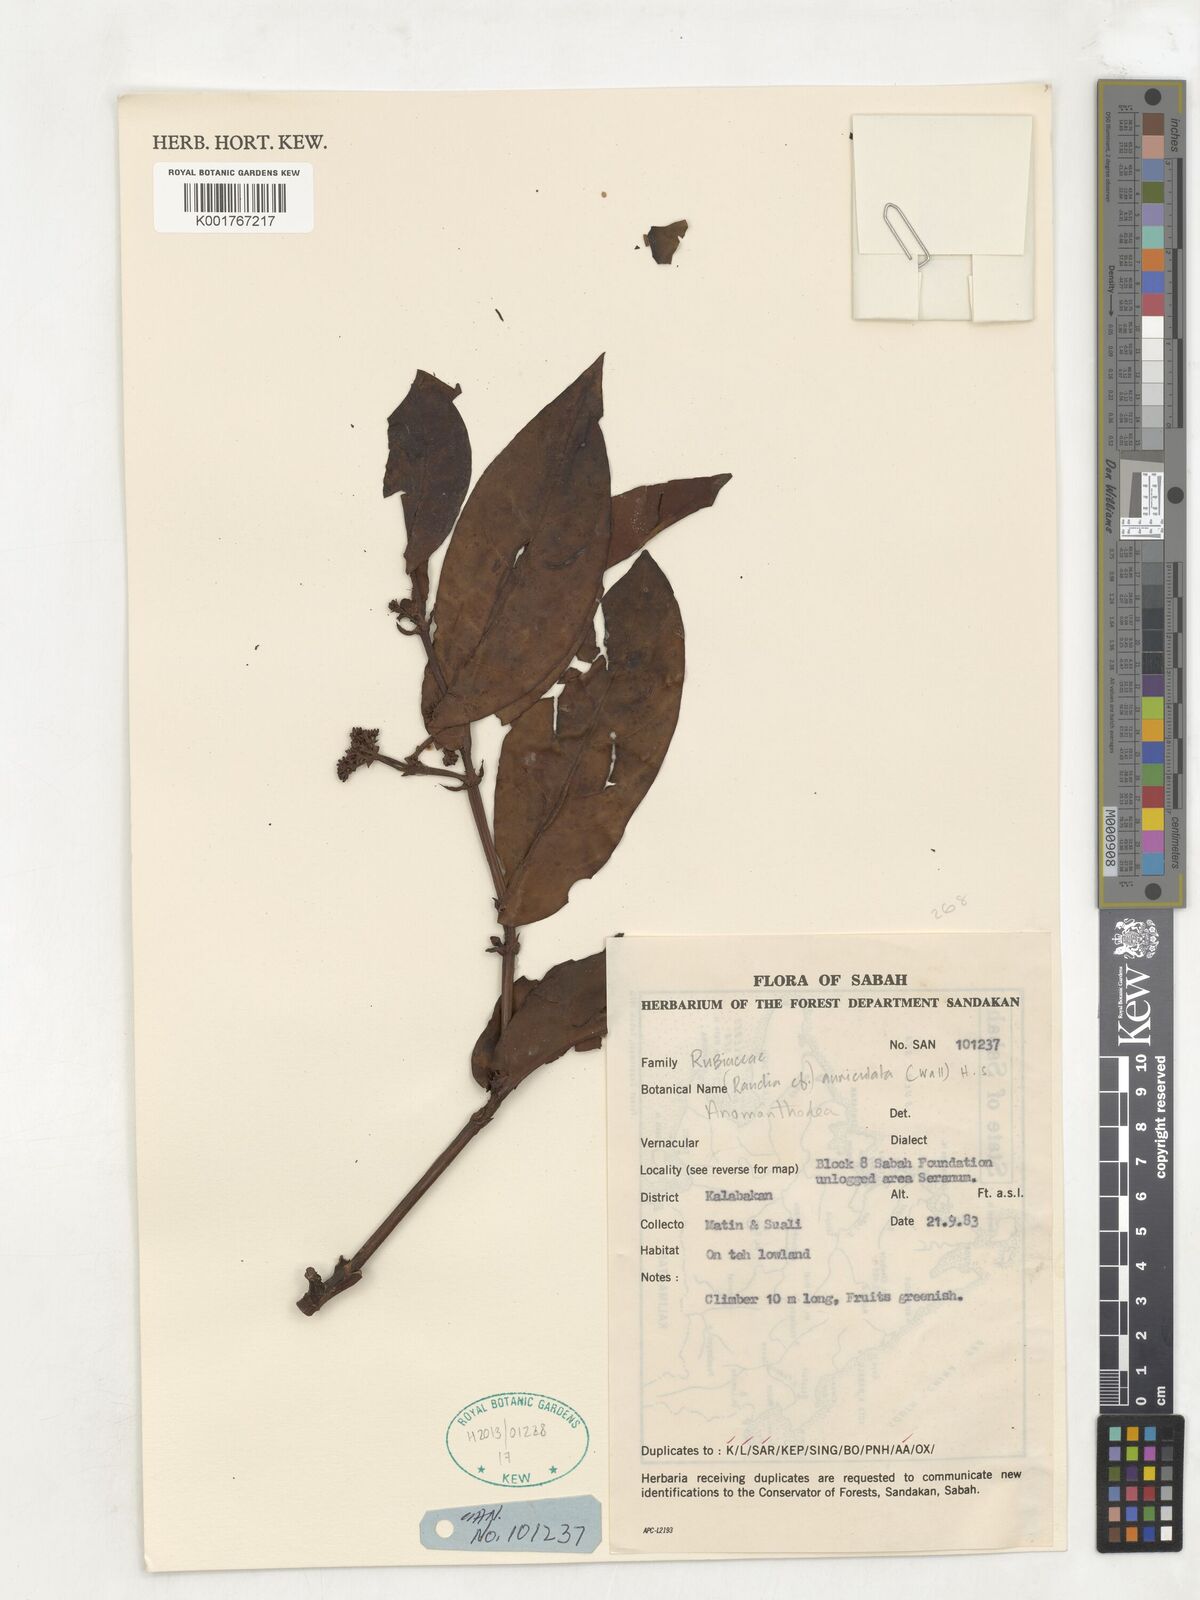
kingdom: Plantae
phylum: Tracheophyta
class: Magnoliopsida
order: Gentianales
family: Rubiaceae
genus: Aidia
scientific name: Aidia auriculata
